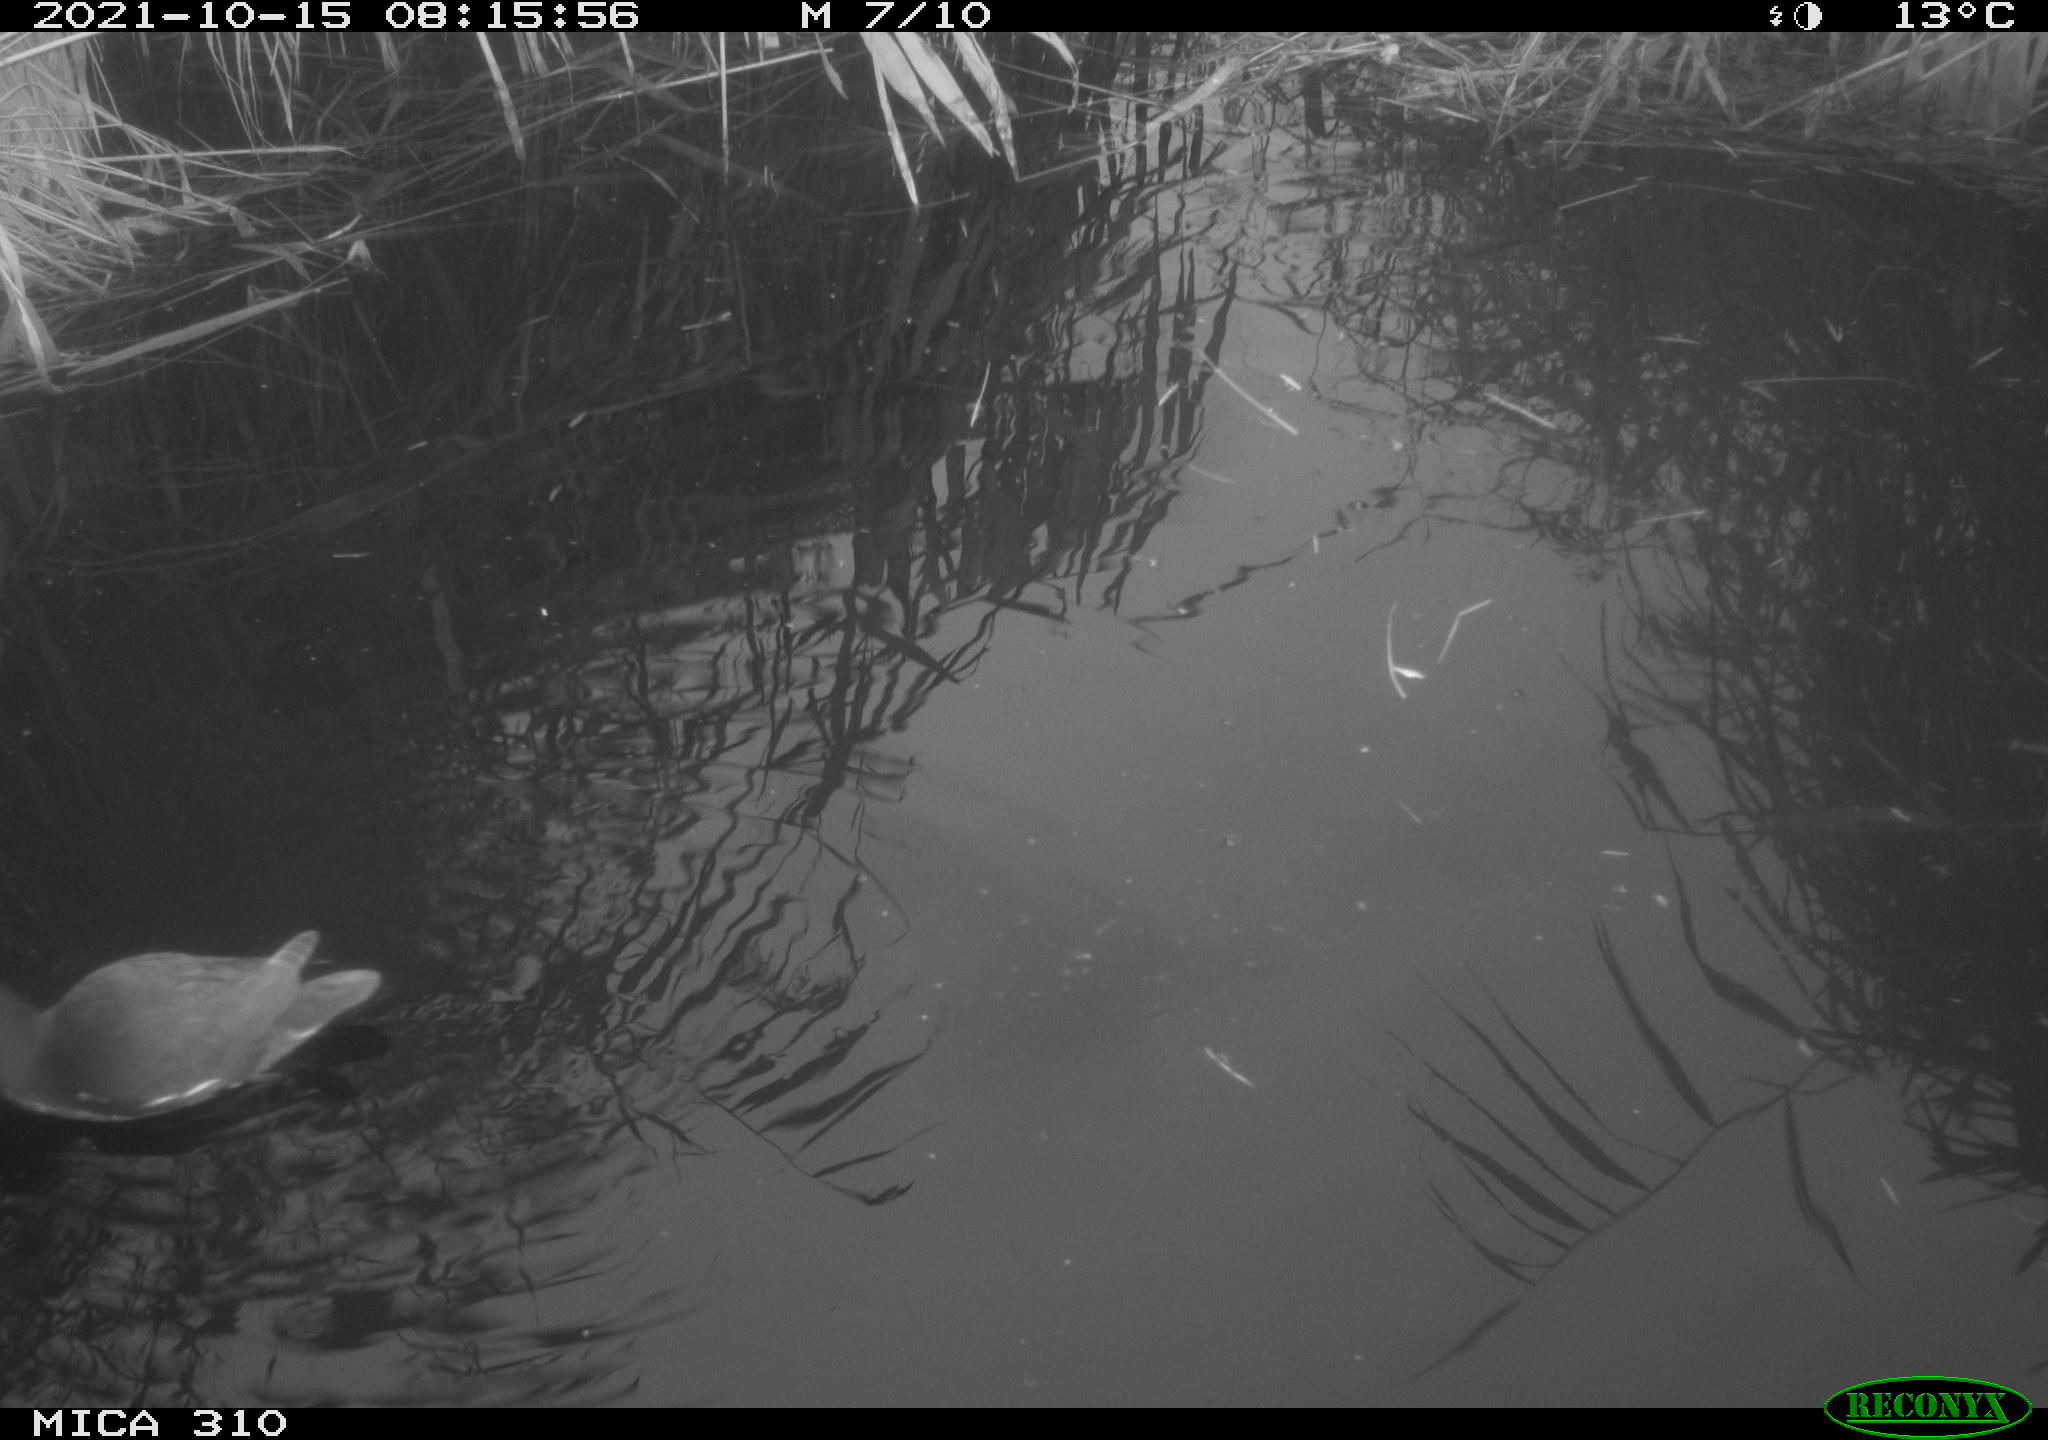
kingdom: Animalia
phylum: Chordata
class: Aves
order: Gruiformes
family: Rallidae
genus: Gallinula
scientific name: Gallinula chloropus
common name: Common moorhen
